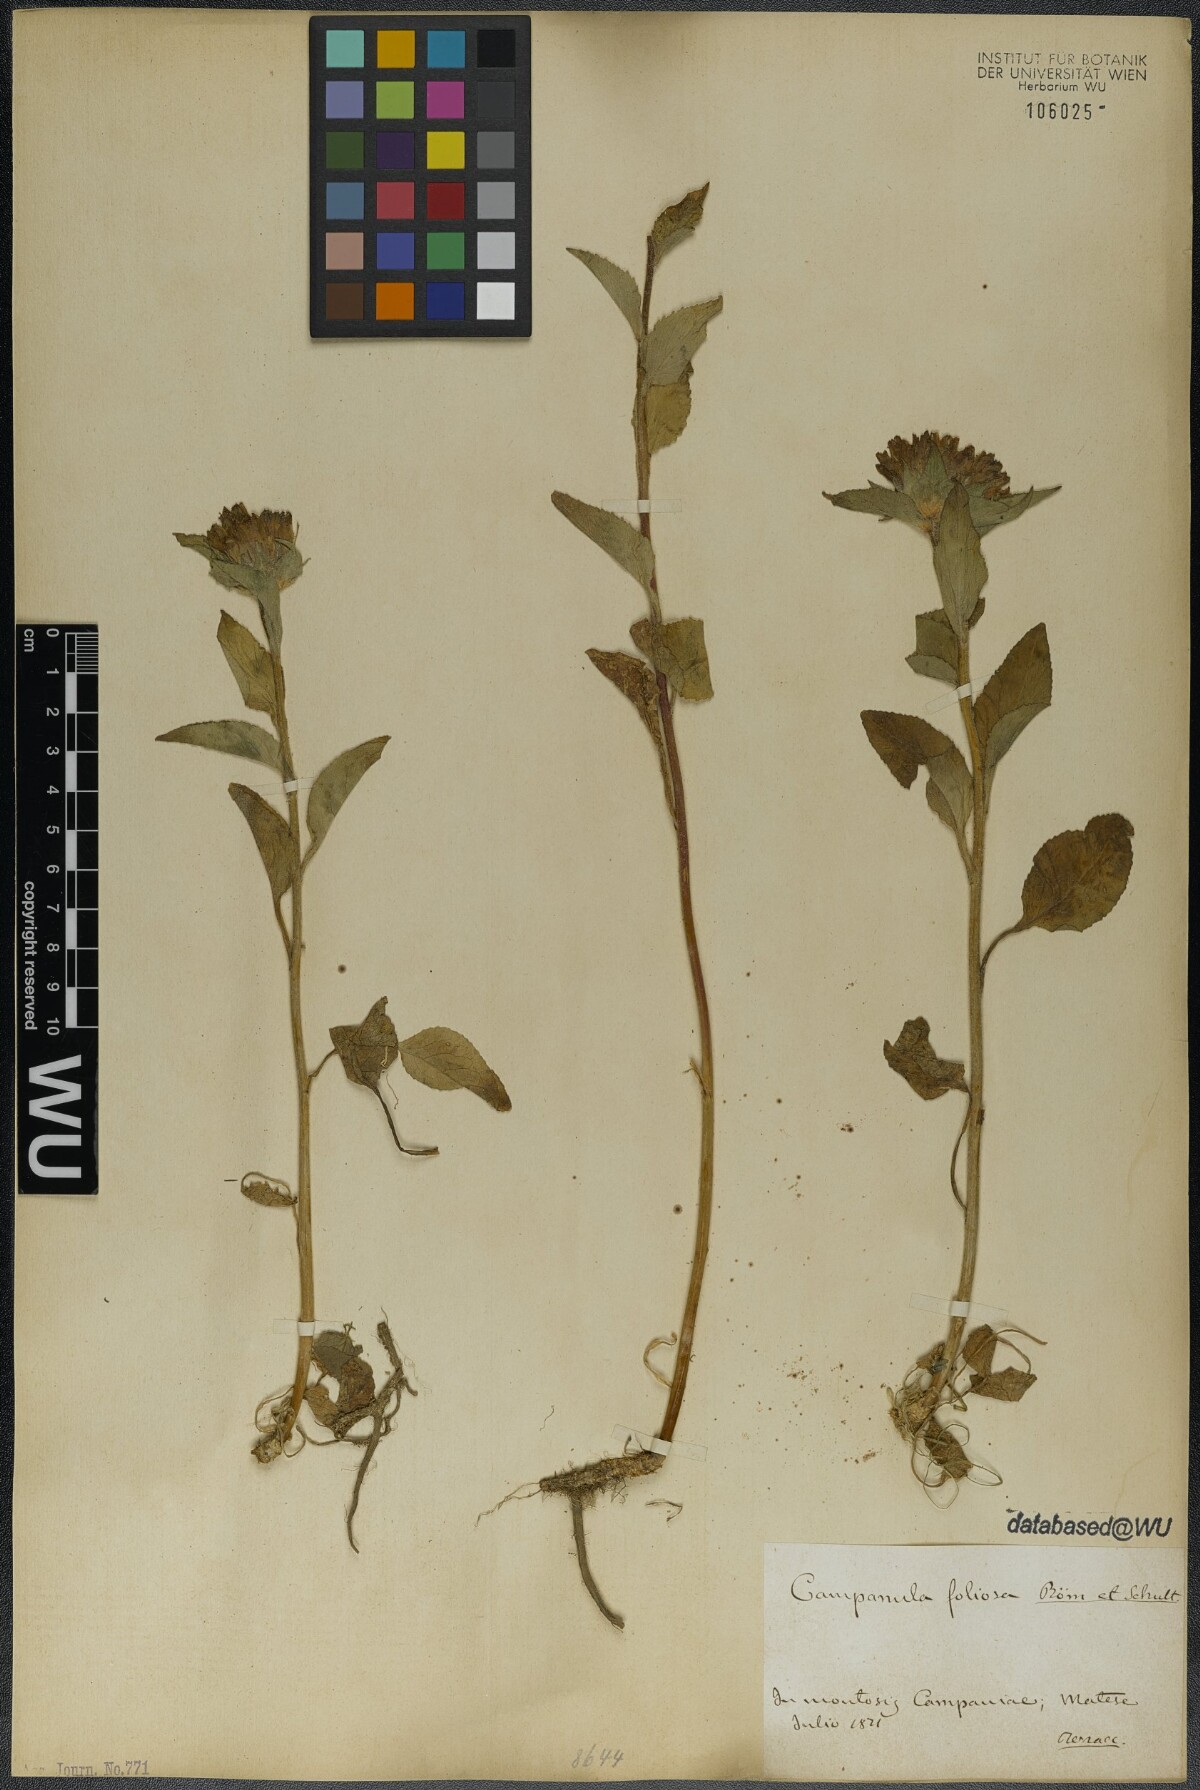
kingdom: Plantae
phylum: Tracheophyta
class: Magnoliopsida
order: Asterales
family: Campanulaceae
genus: Campanula
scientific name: Campanula foliosa
